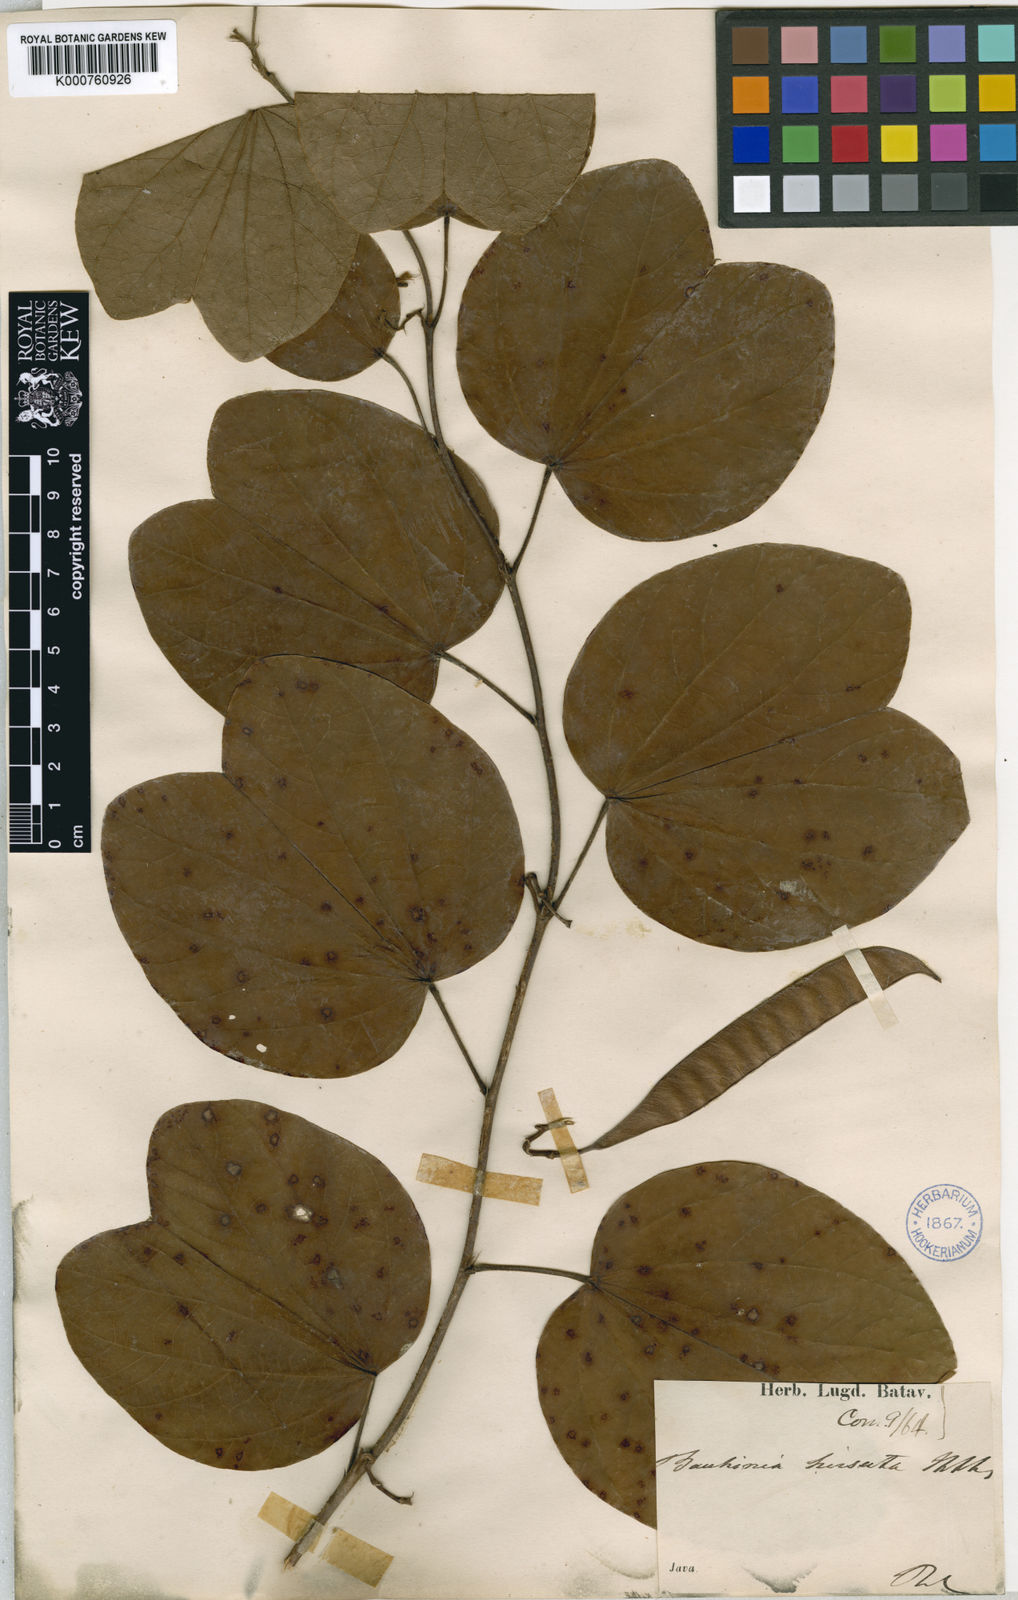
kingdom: Plantae
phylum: Tracheophyta
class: Magnoliopsida
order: Fabales
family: Fabaceae
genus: Bauhinia
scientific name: Bauhinia hirsuta
